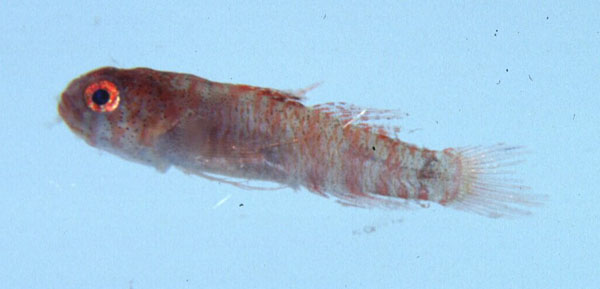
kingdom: Animalia
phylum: Chordata
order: Perciformes
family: Gobiidae
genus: Eviota
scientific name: Eviota nebulosa
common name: Nebulous pygmy goby
